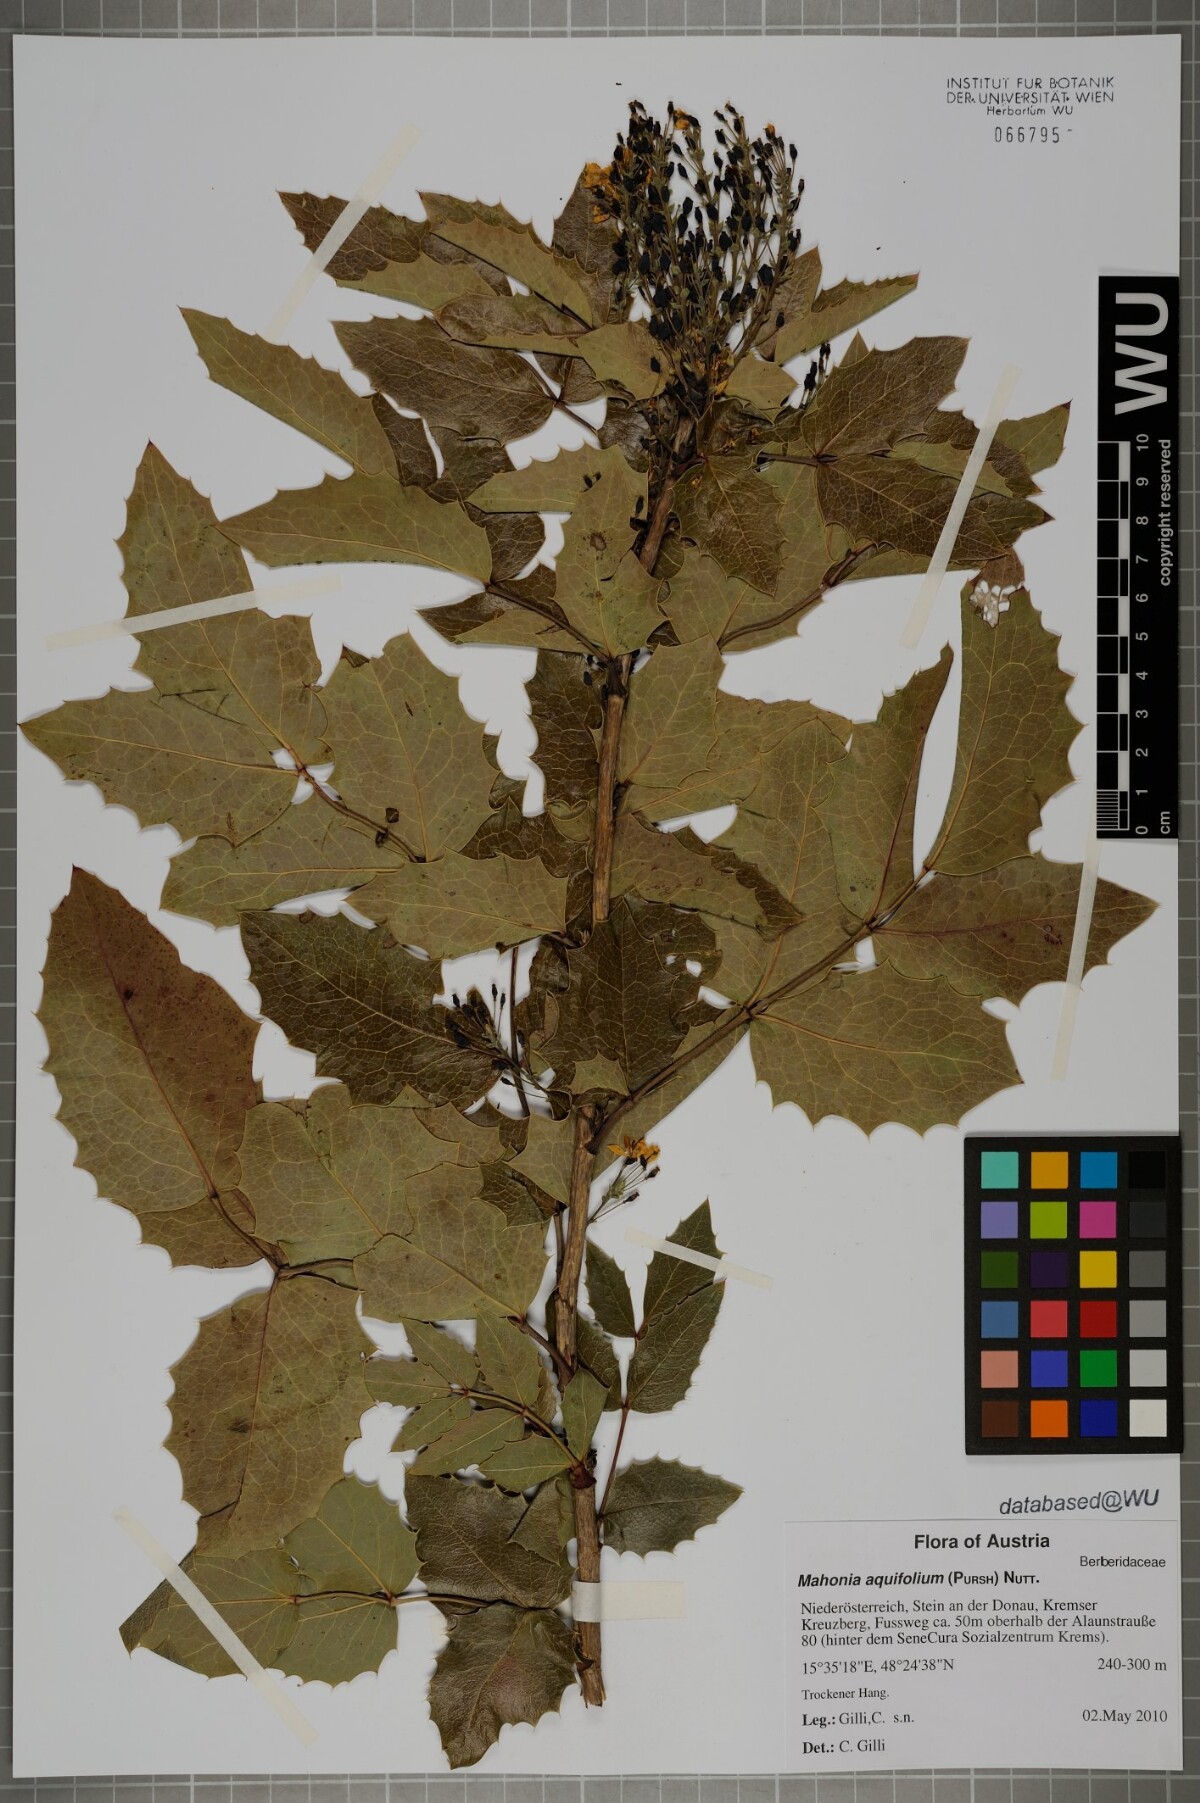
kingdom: Plantae
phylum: Tracheophyta
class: Magnoliopsida
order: Ranunculales
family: Berberidaceae
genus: Mahonia
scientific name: Mahonia aquifolium
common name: Oregon-grape
